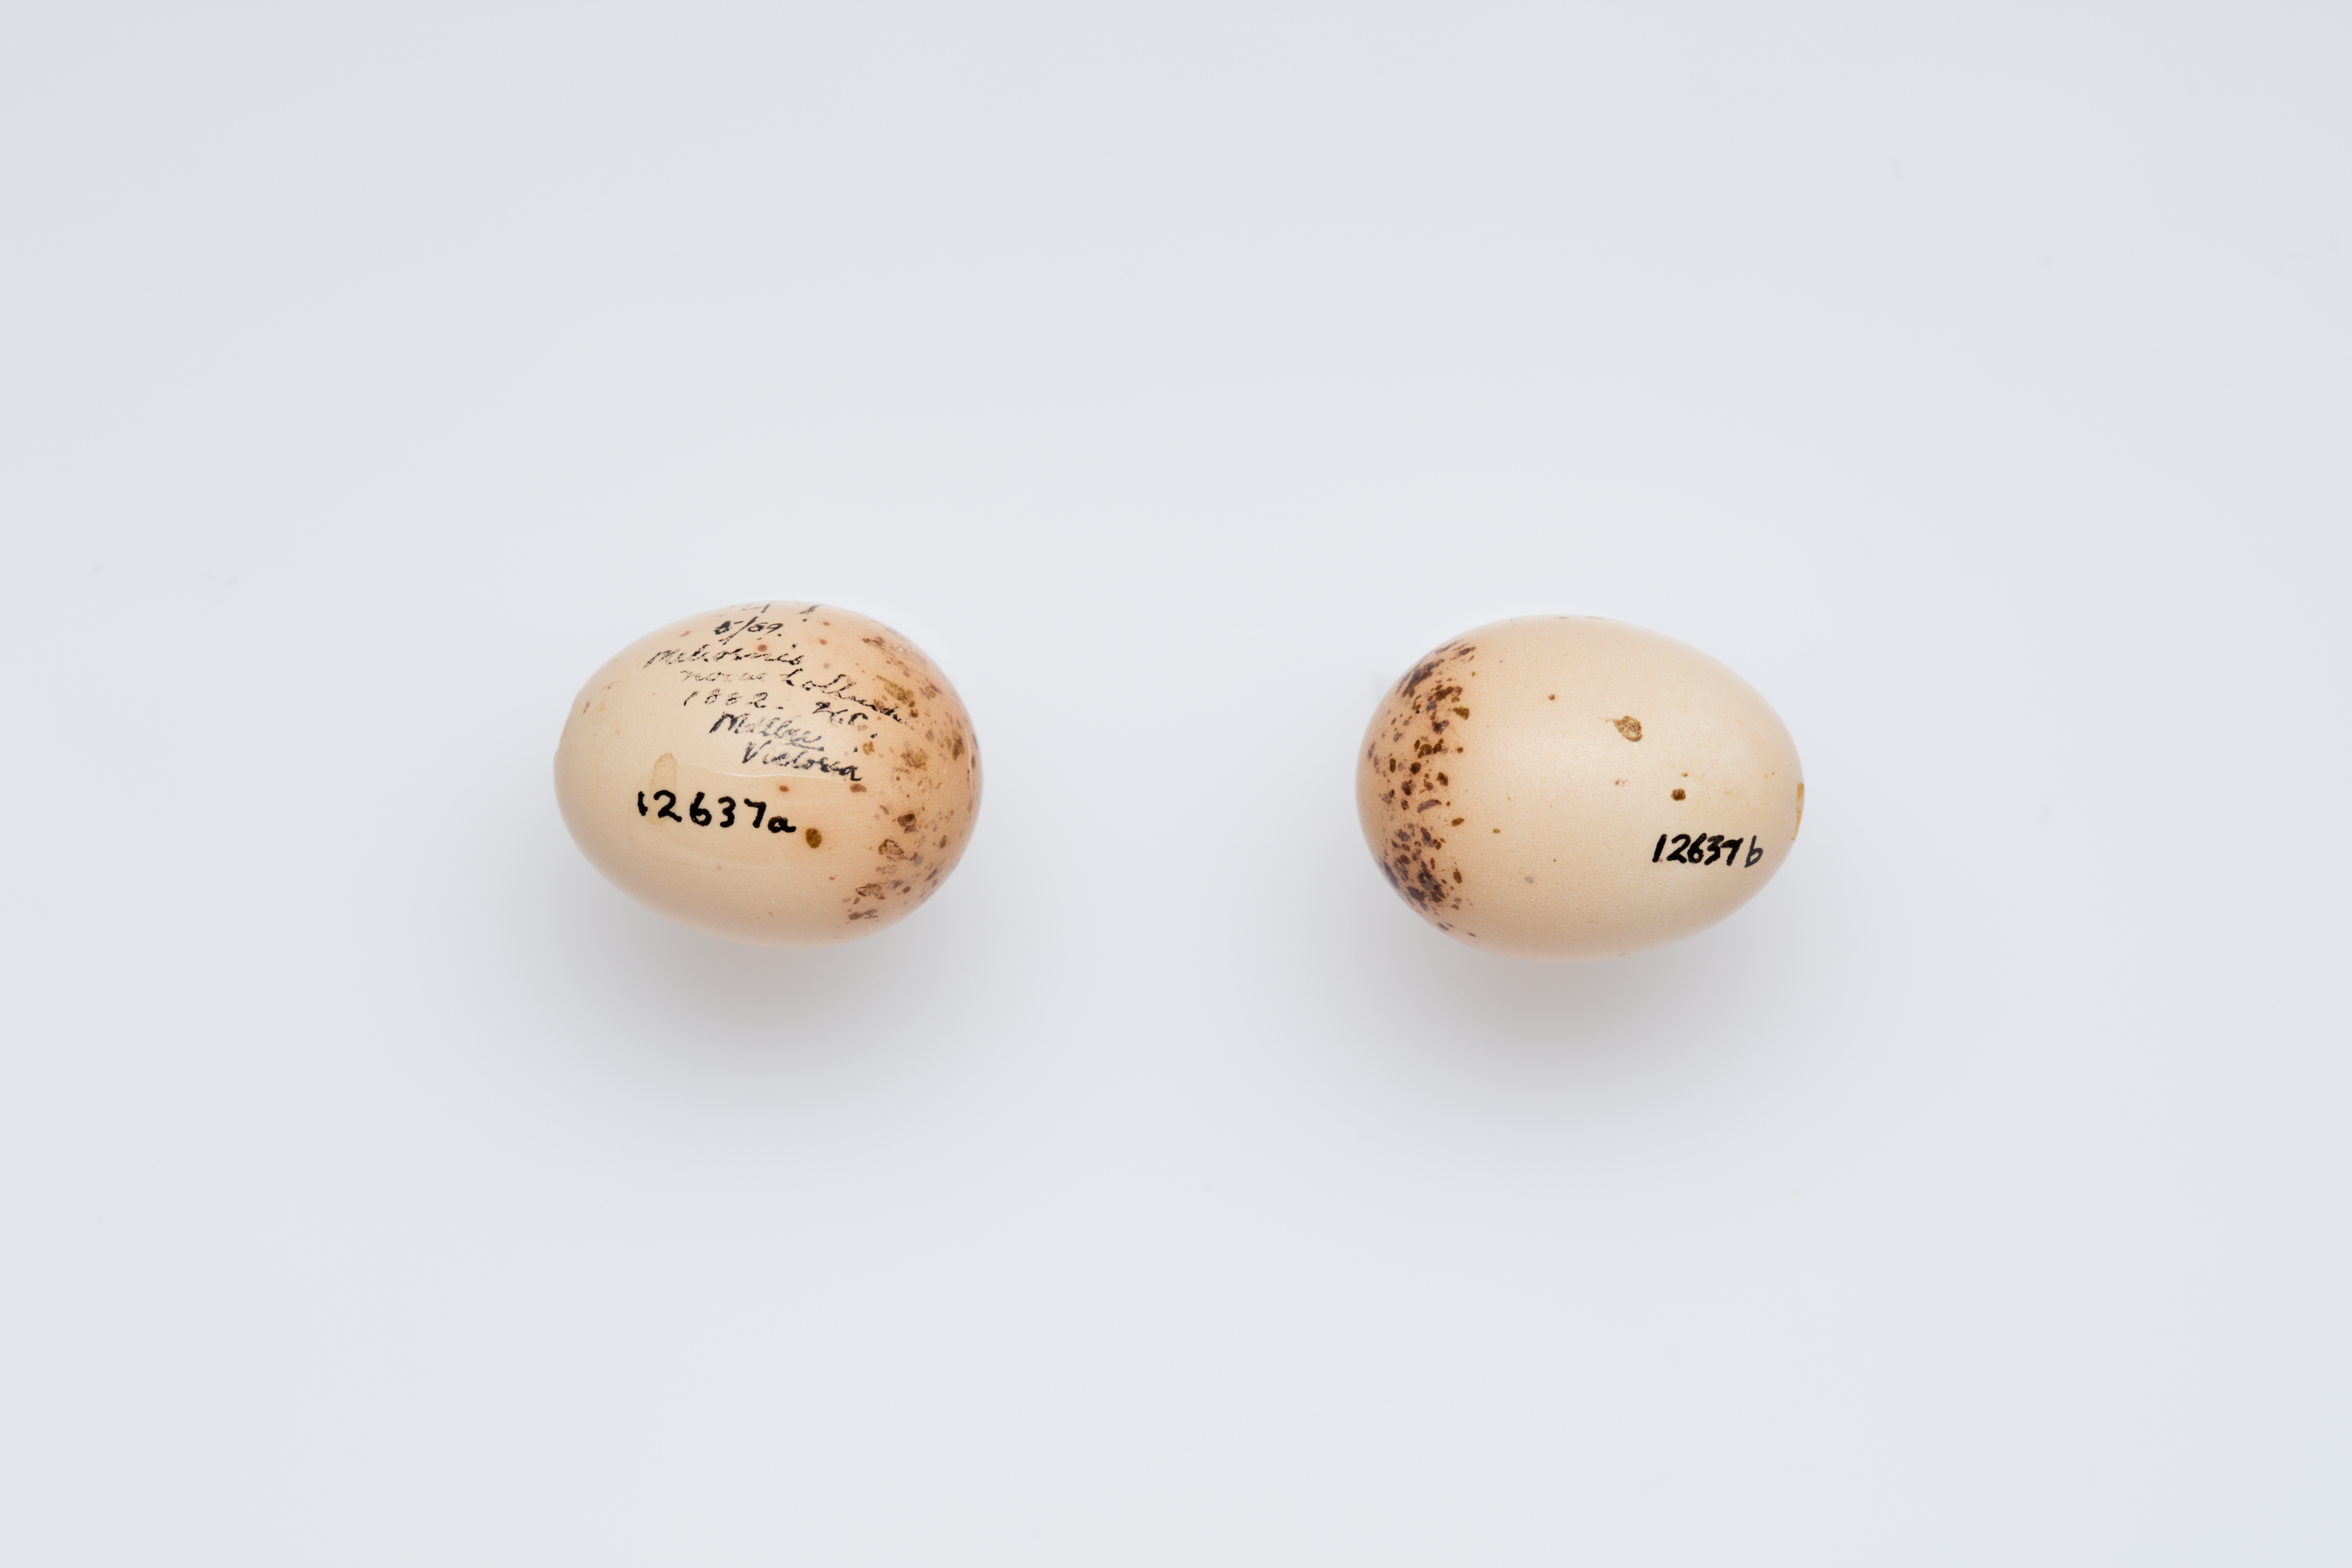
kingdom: Animalia
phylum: Chordata
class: Aves
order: Passeriformes
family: Meliphagidae
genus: Phylidonyris
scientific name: Phylidonyris novaehollandiae
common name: New holland honeyeater
